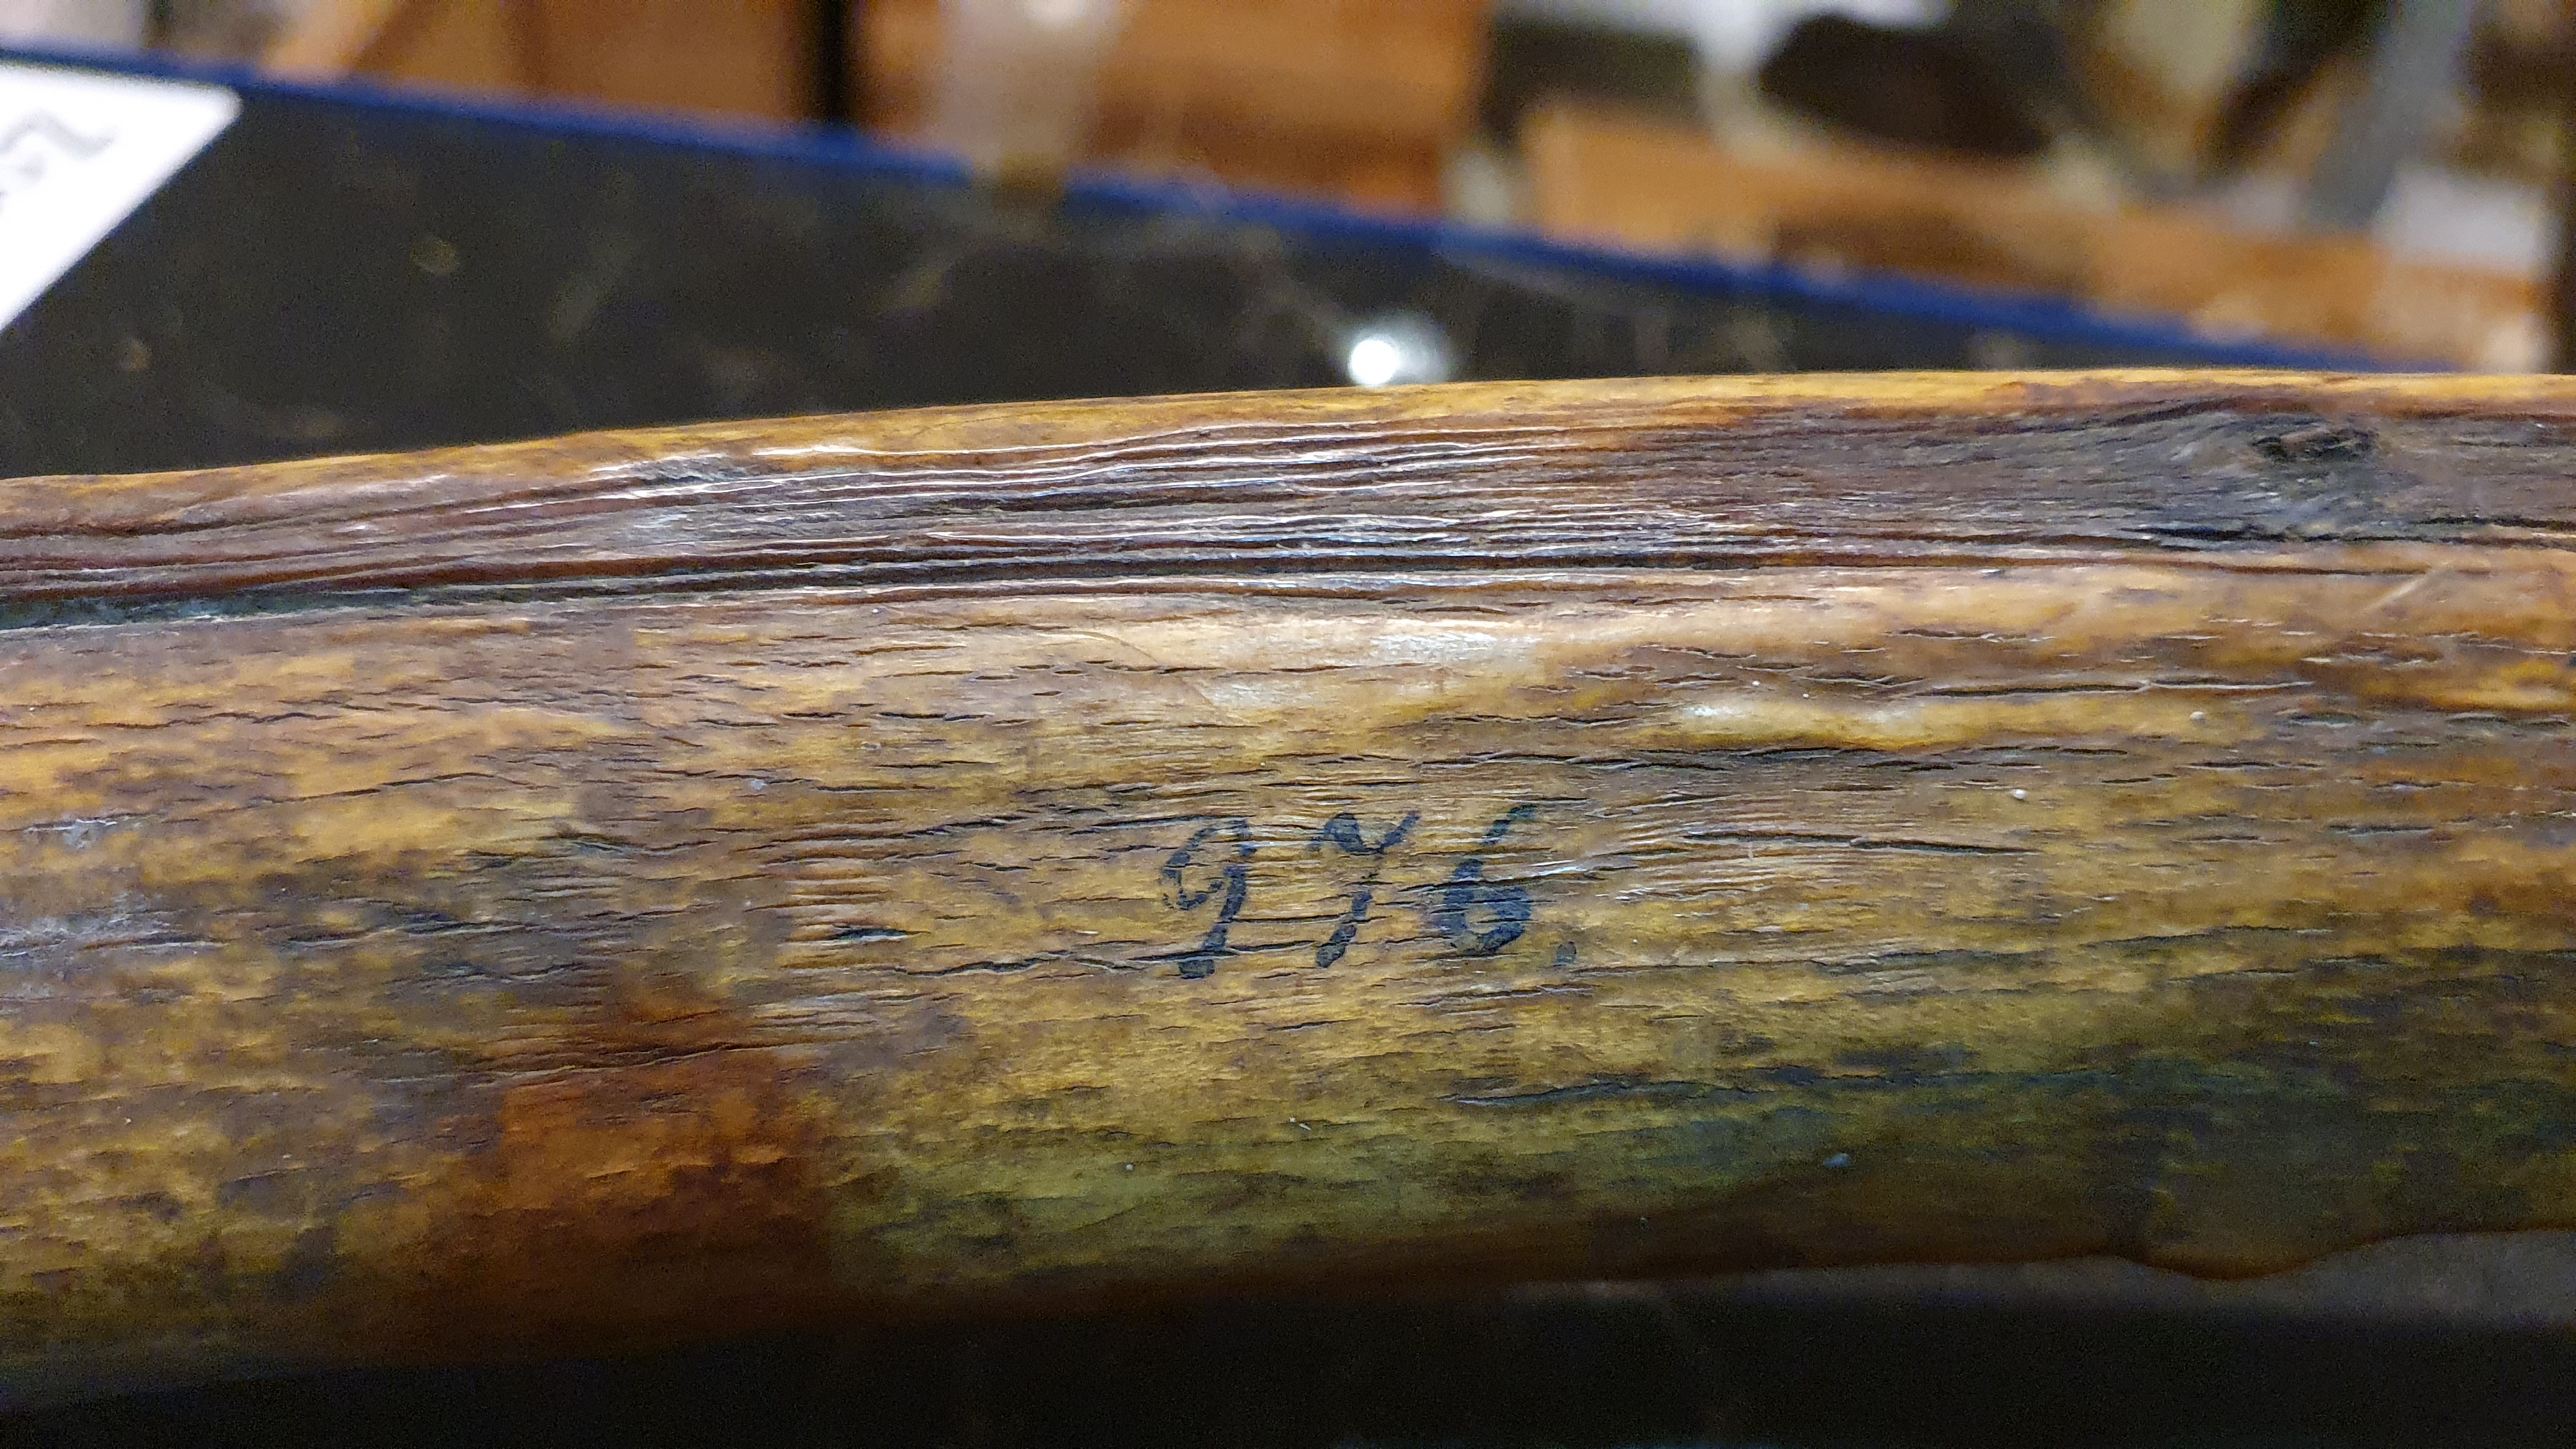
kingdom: Animalia
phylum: Chordata
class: Mammalia
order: Cetacea
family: Balaenidae
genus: Balaena
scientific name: Balaena
